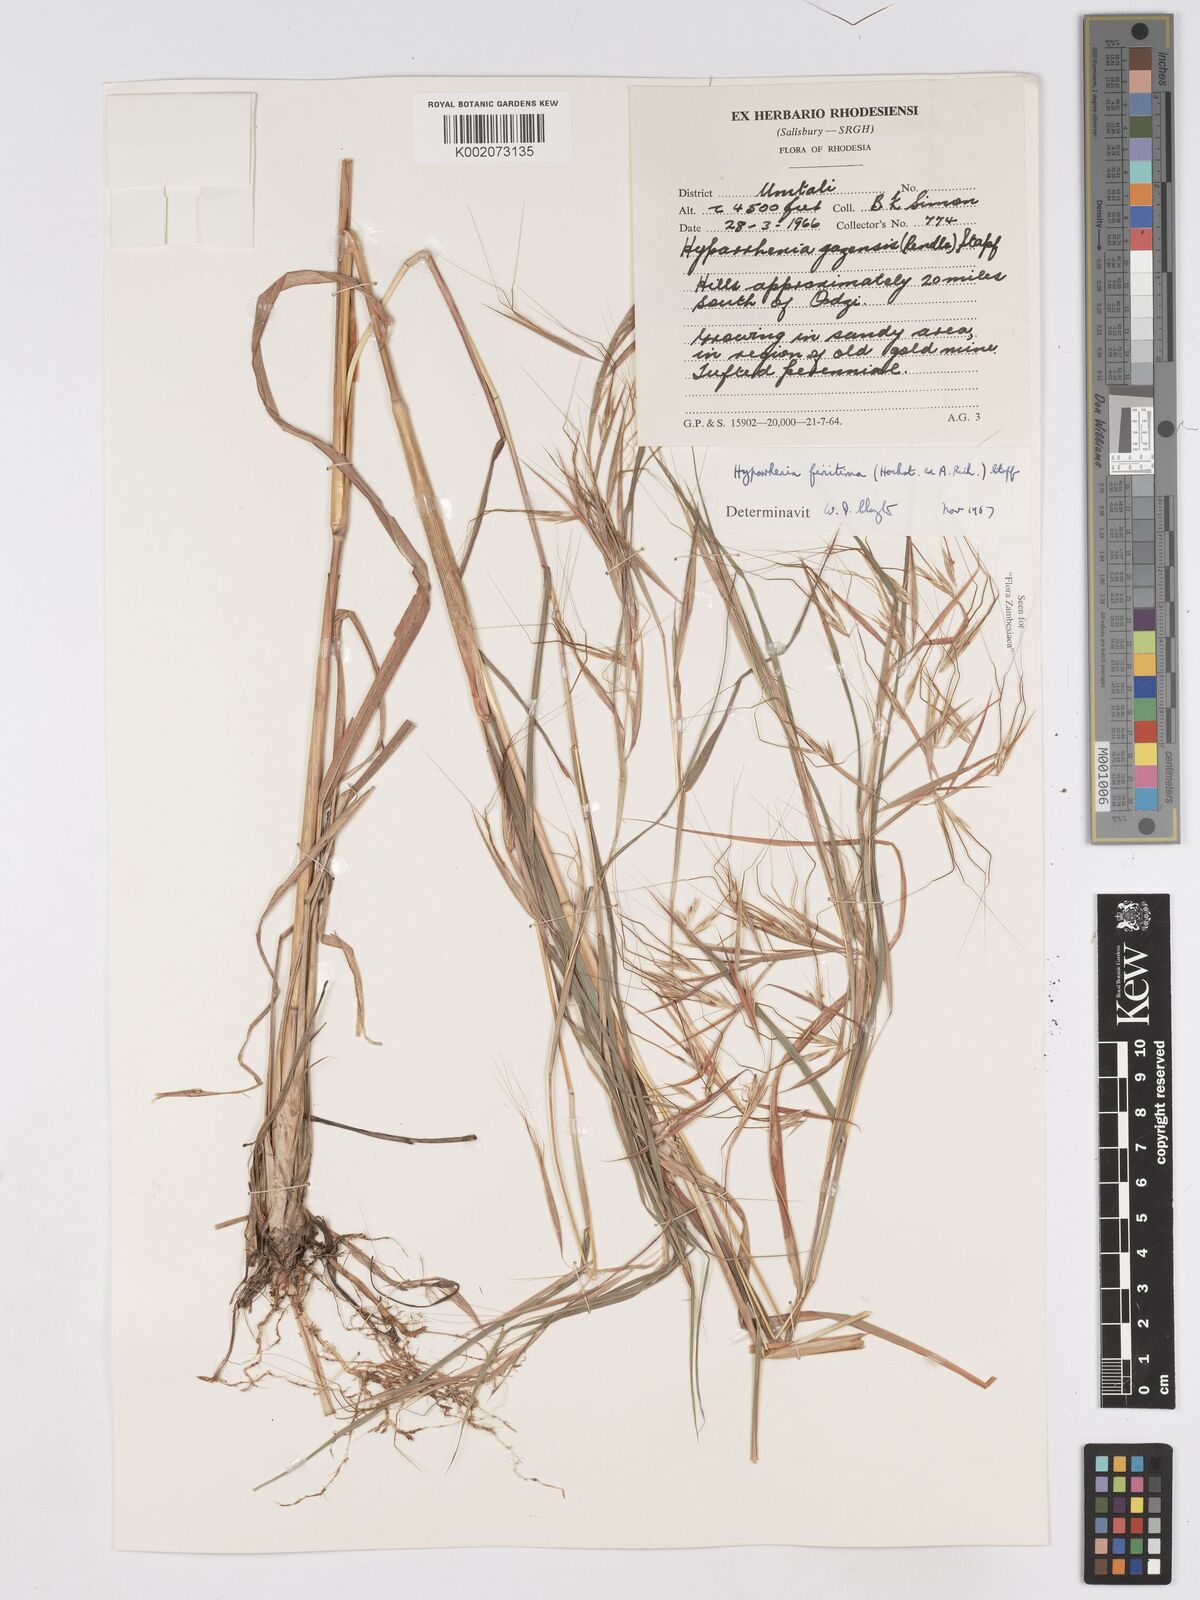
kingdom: Plantae
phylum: Tracheophyta
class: Liliopsida
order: Poales
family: Poaceae
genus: Hyparrhenia
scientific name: Hyparrhenia finitima
